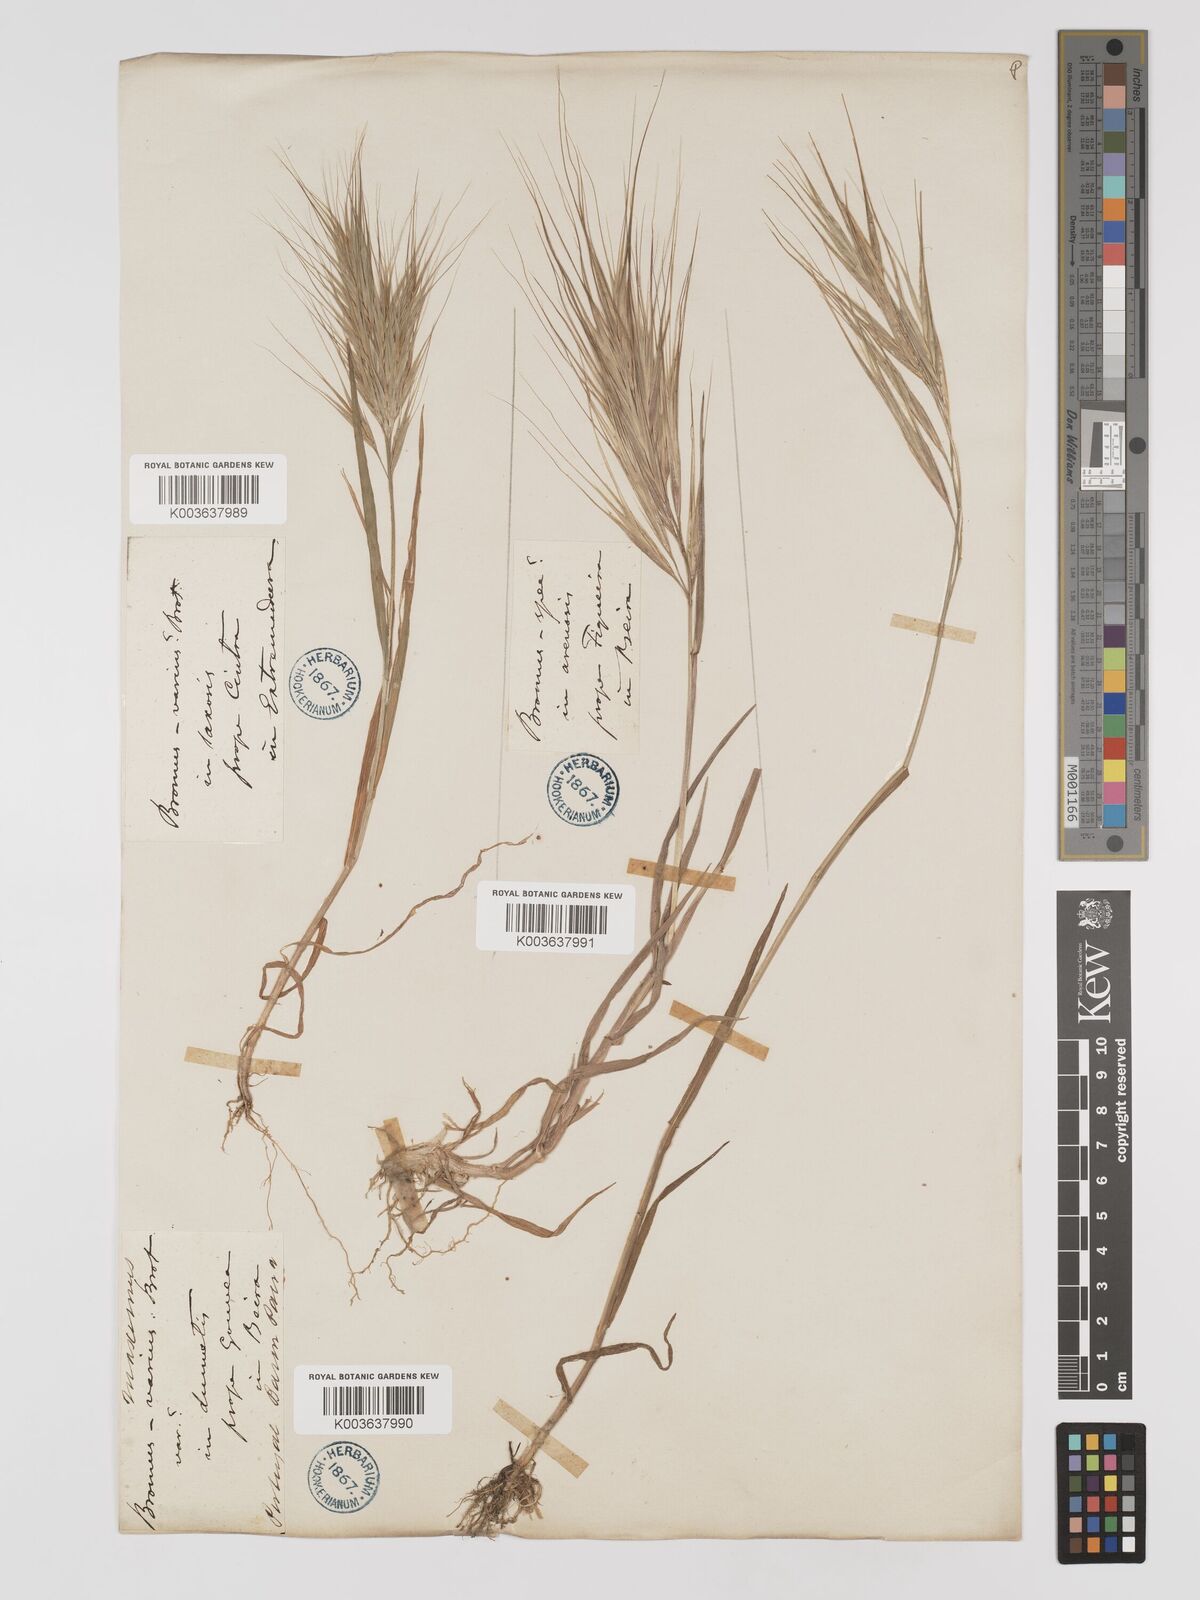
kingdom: Plantae
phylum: Tracheophyta
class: Liliopsida
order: Poales
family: Poaceae
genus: Bromus
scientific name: Bromus
